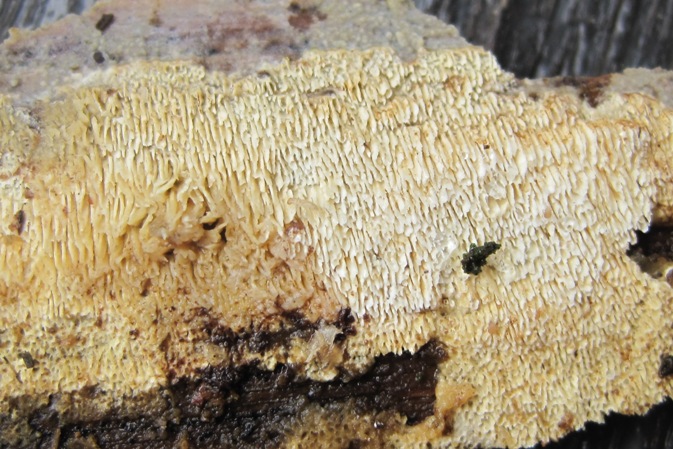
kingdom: Fungi
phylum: Basidiomycota
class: Agaricomycetes
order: Hymenochaetales
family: Schizoporaceae
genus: Schizopora
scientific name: Schizopora paradoxa
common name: hvid tandsvamp
